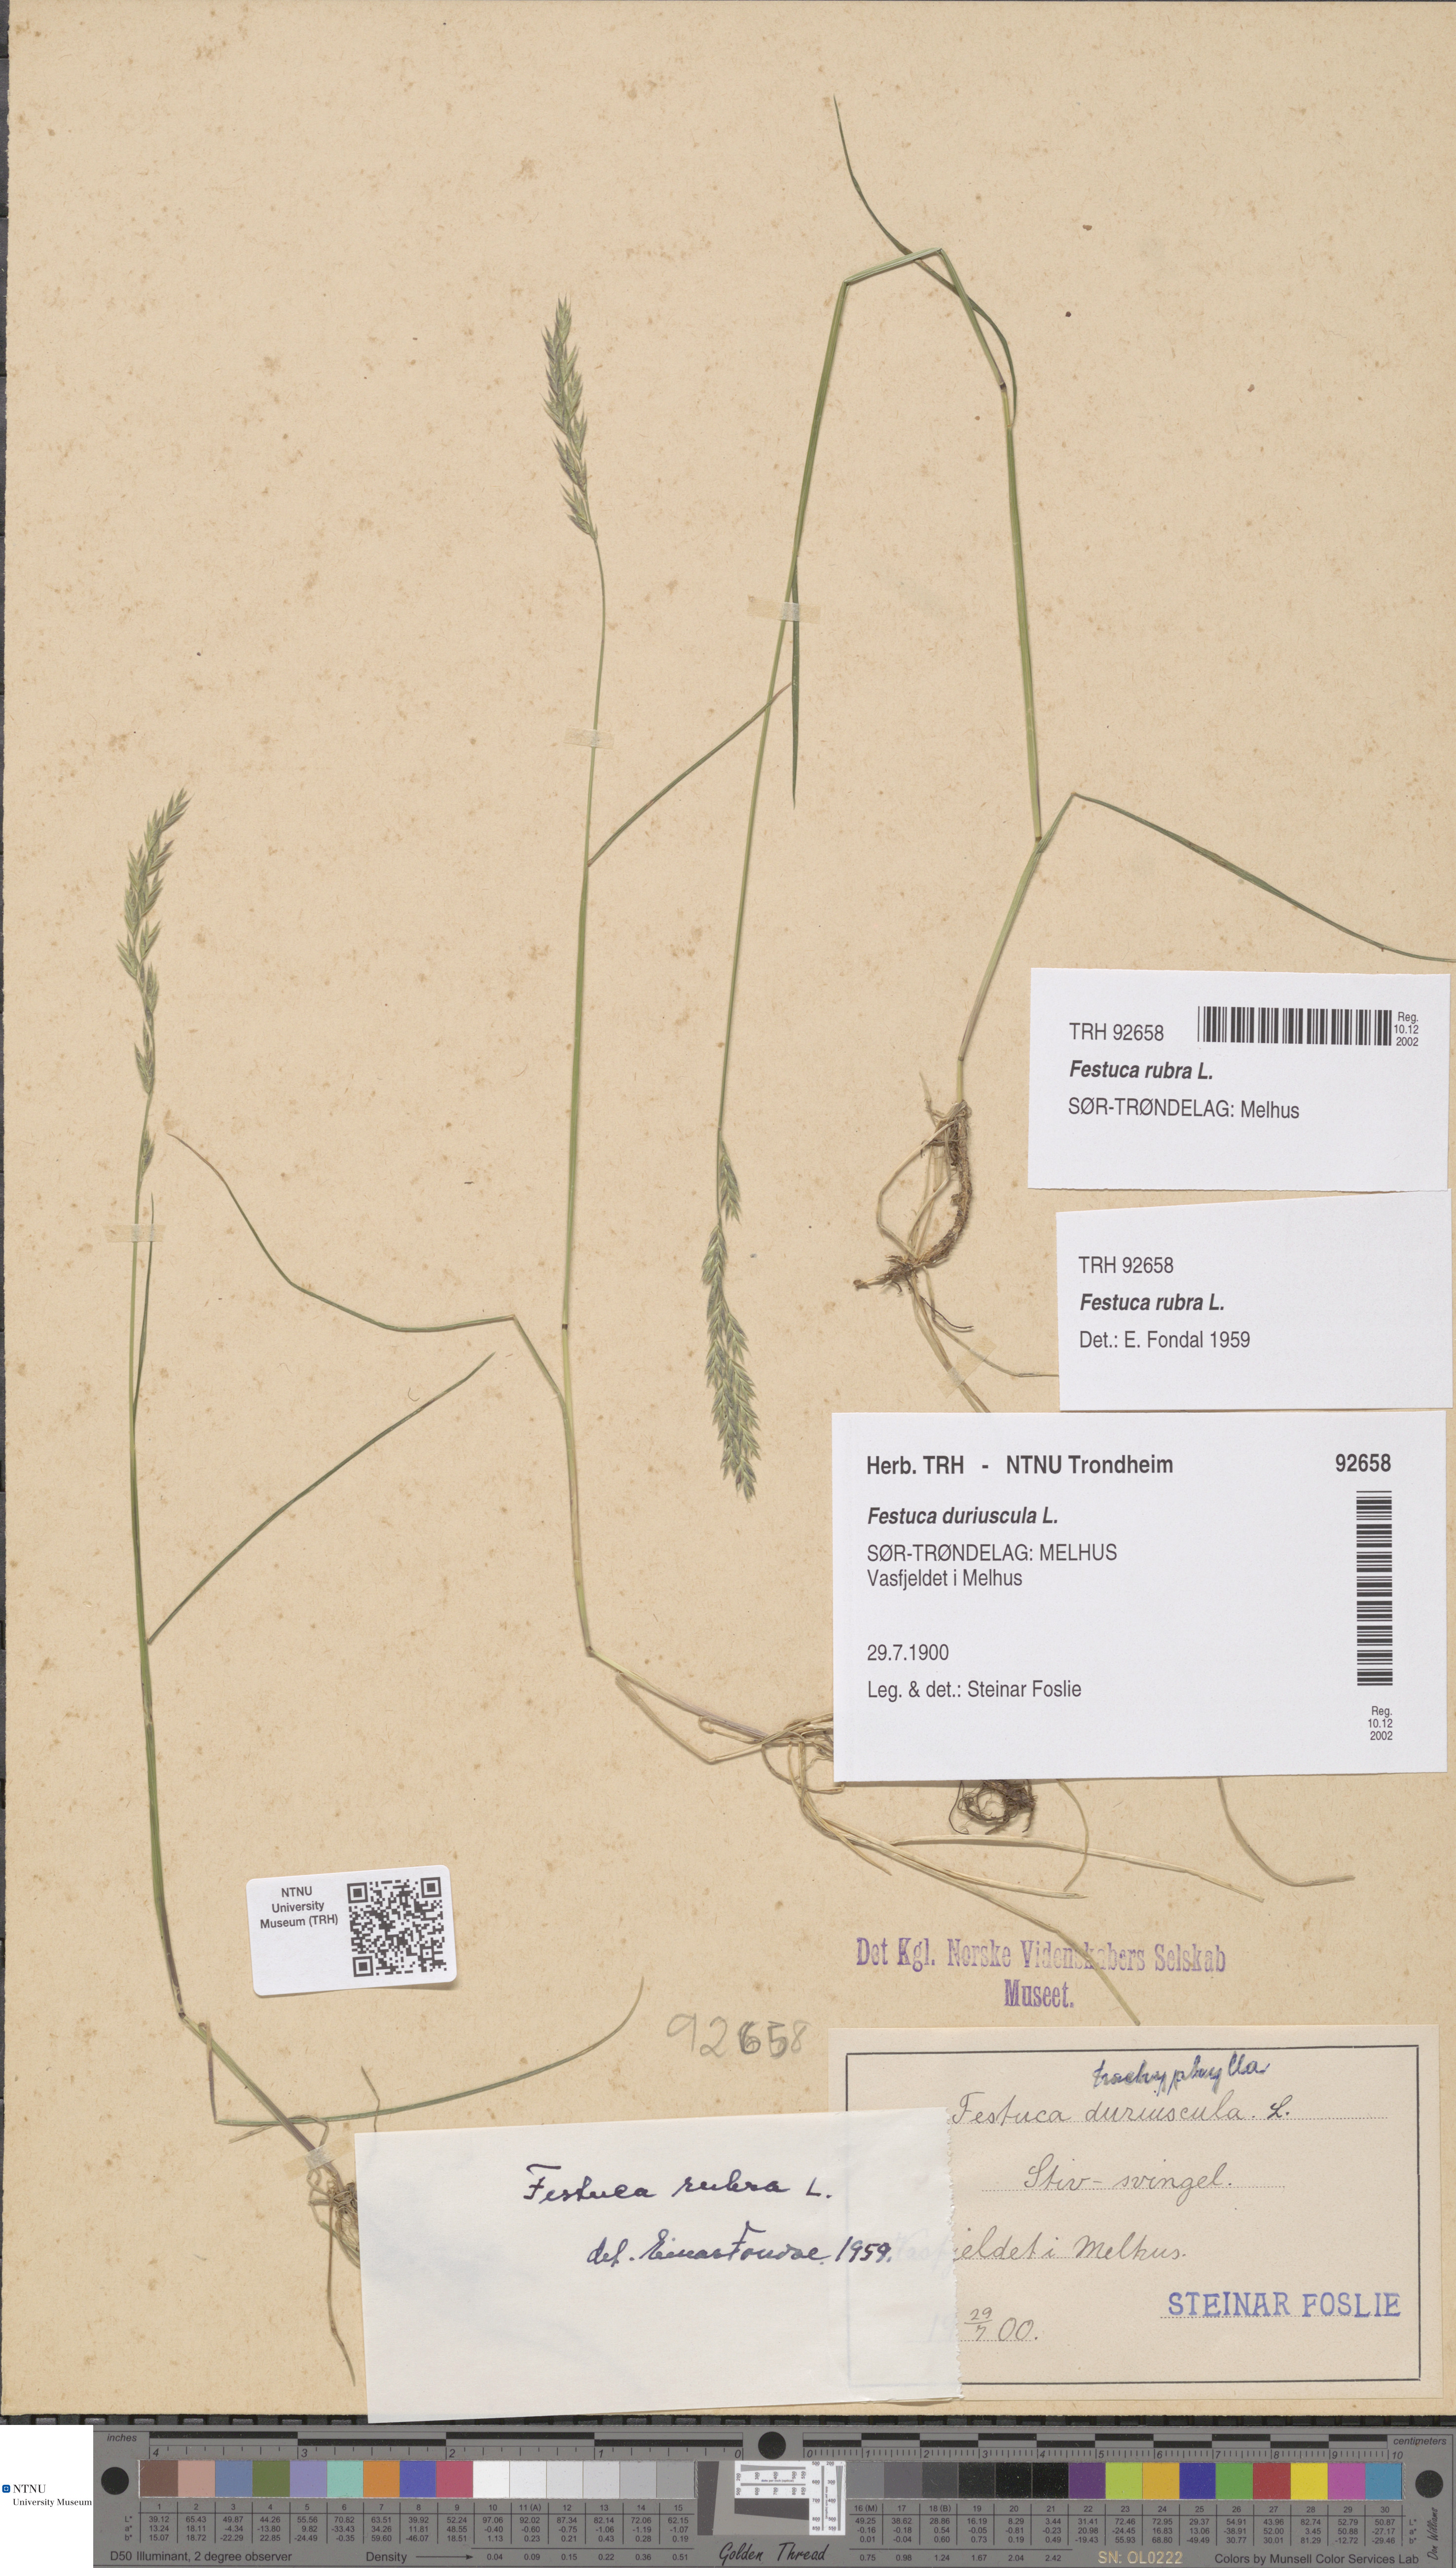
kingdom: Plantae
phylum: Tracheophyta
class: Liliopsida
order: Poales
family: Poaceae
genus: Festuca
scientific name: Festuca rubra
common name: Red fescue
